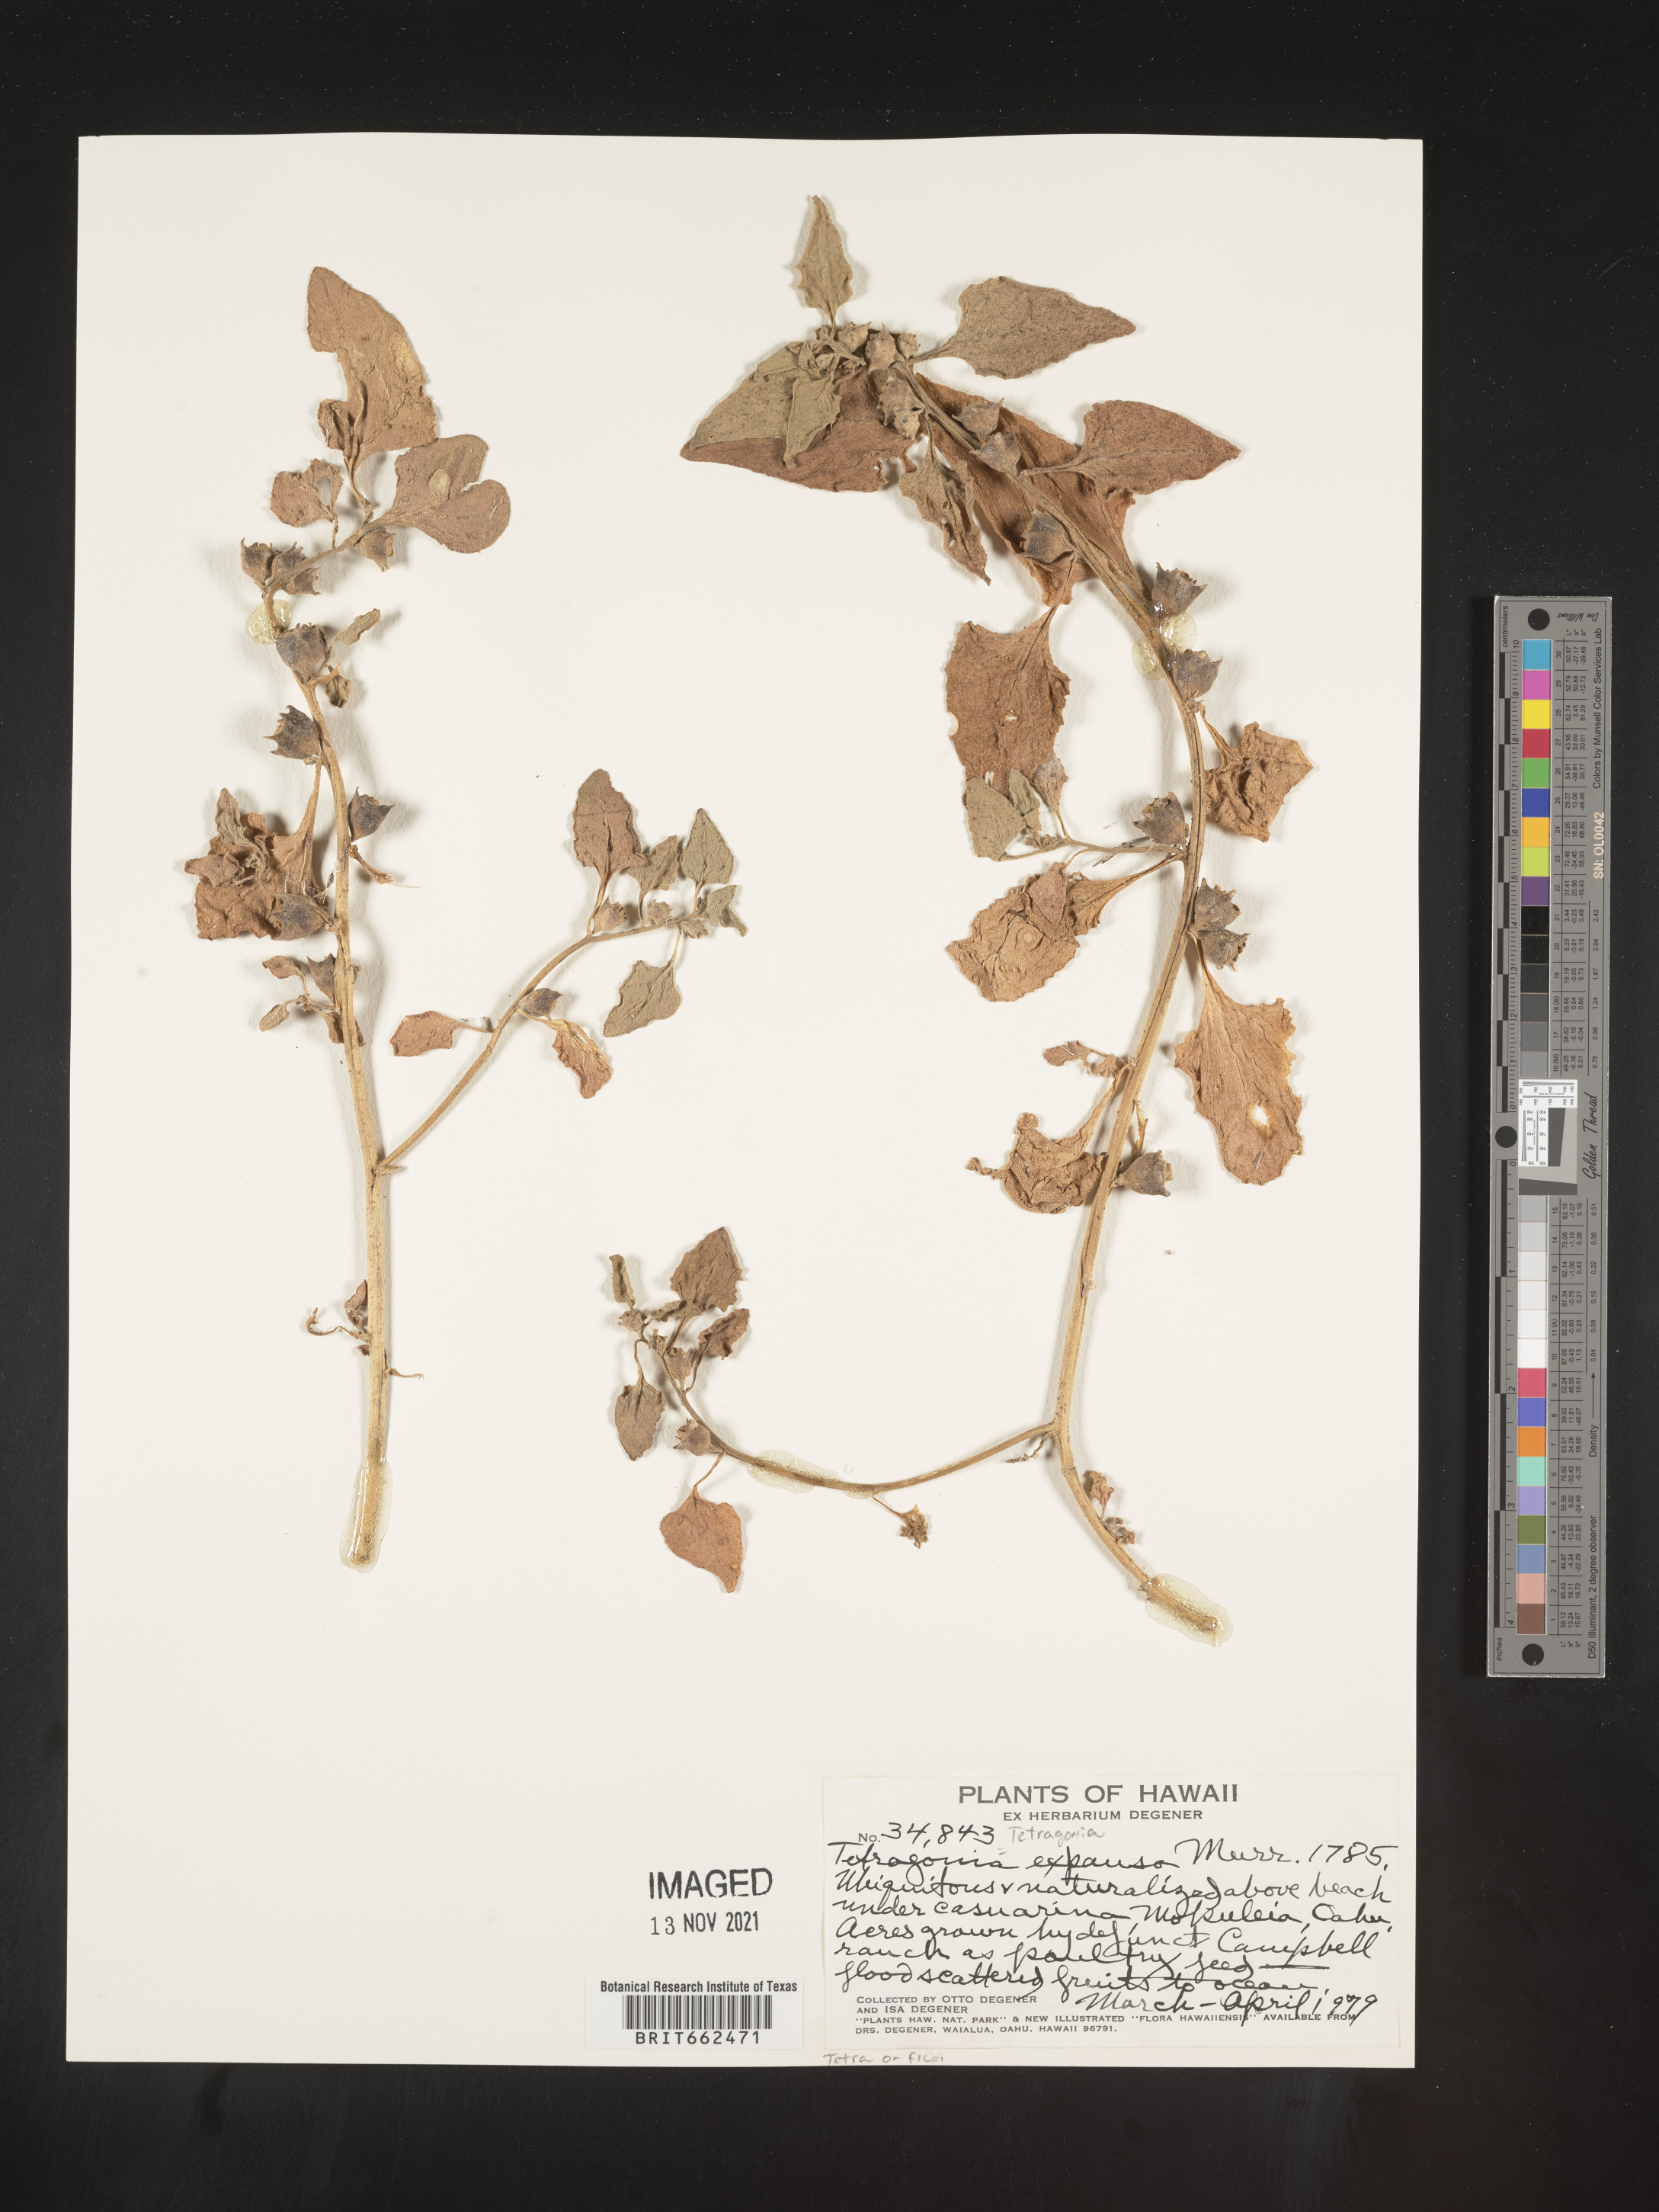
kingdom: Plantae
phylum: Tracheophyta
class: Magnoliopsida
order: Caryophyllales
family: Aizoaceae
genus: Tetragonia
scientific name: Tetragonia
